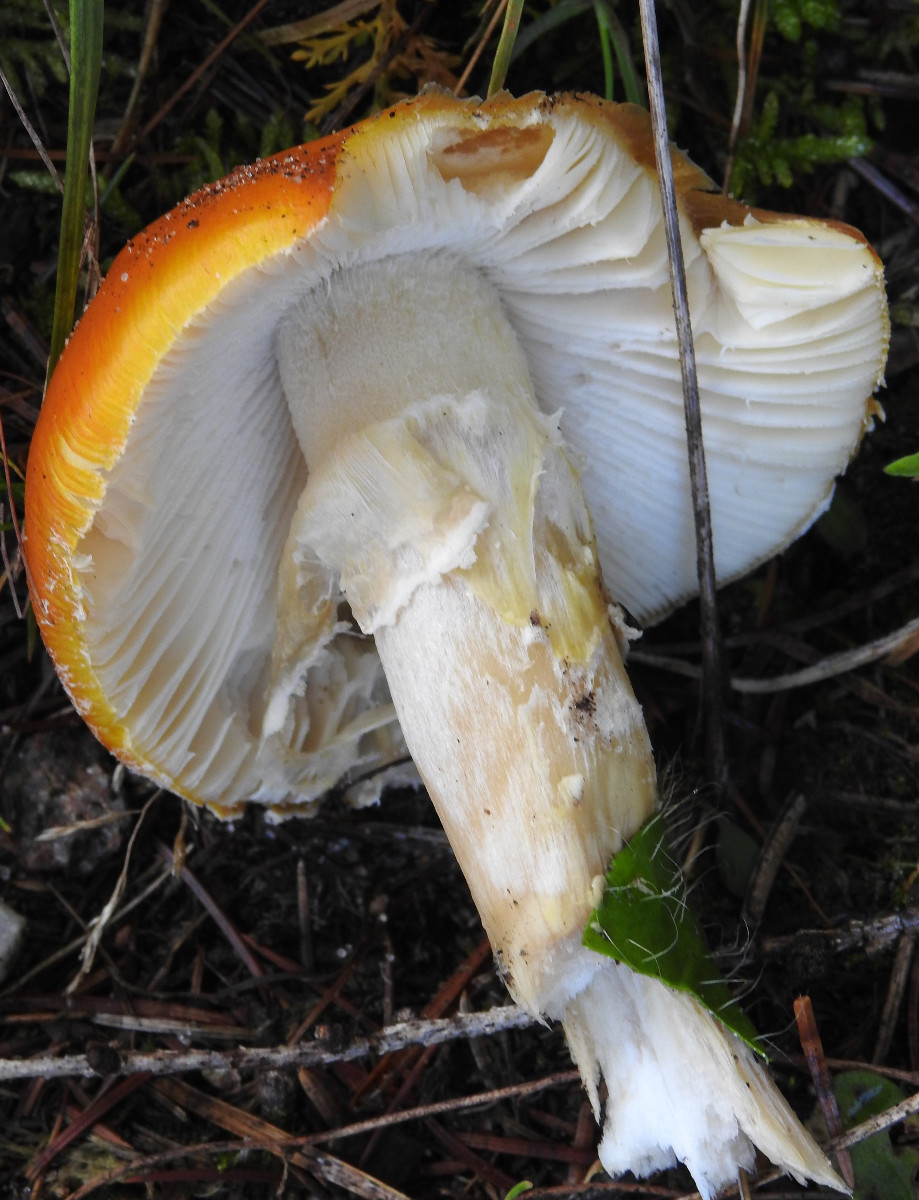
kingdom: Fungi
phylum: Basidiomycota
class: Agaricomycetes
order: Agaricales
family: Amanitaceae
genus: Amanita
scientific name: Amanita muscaria
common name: rød fluesvamp
